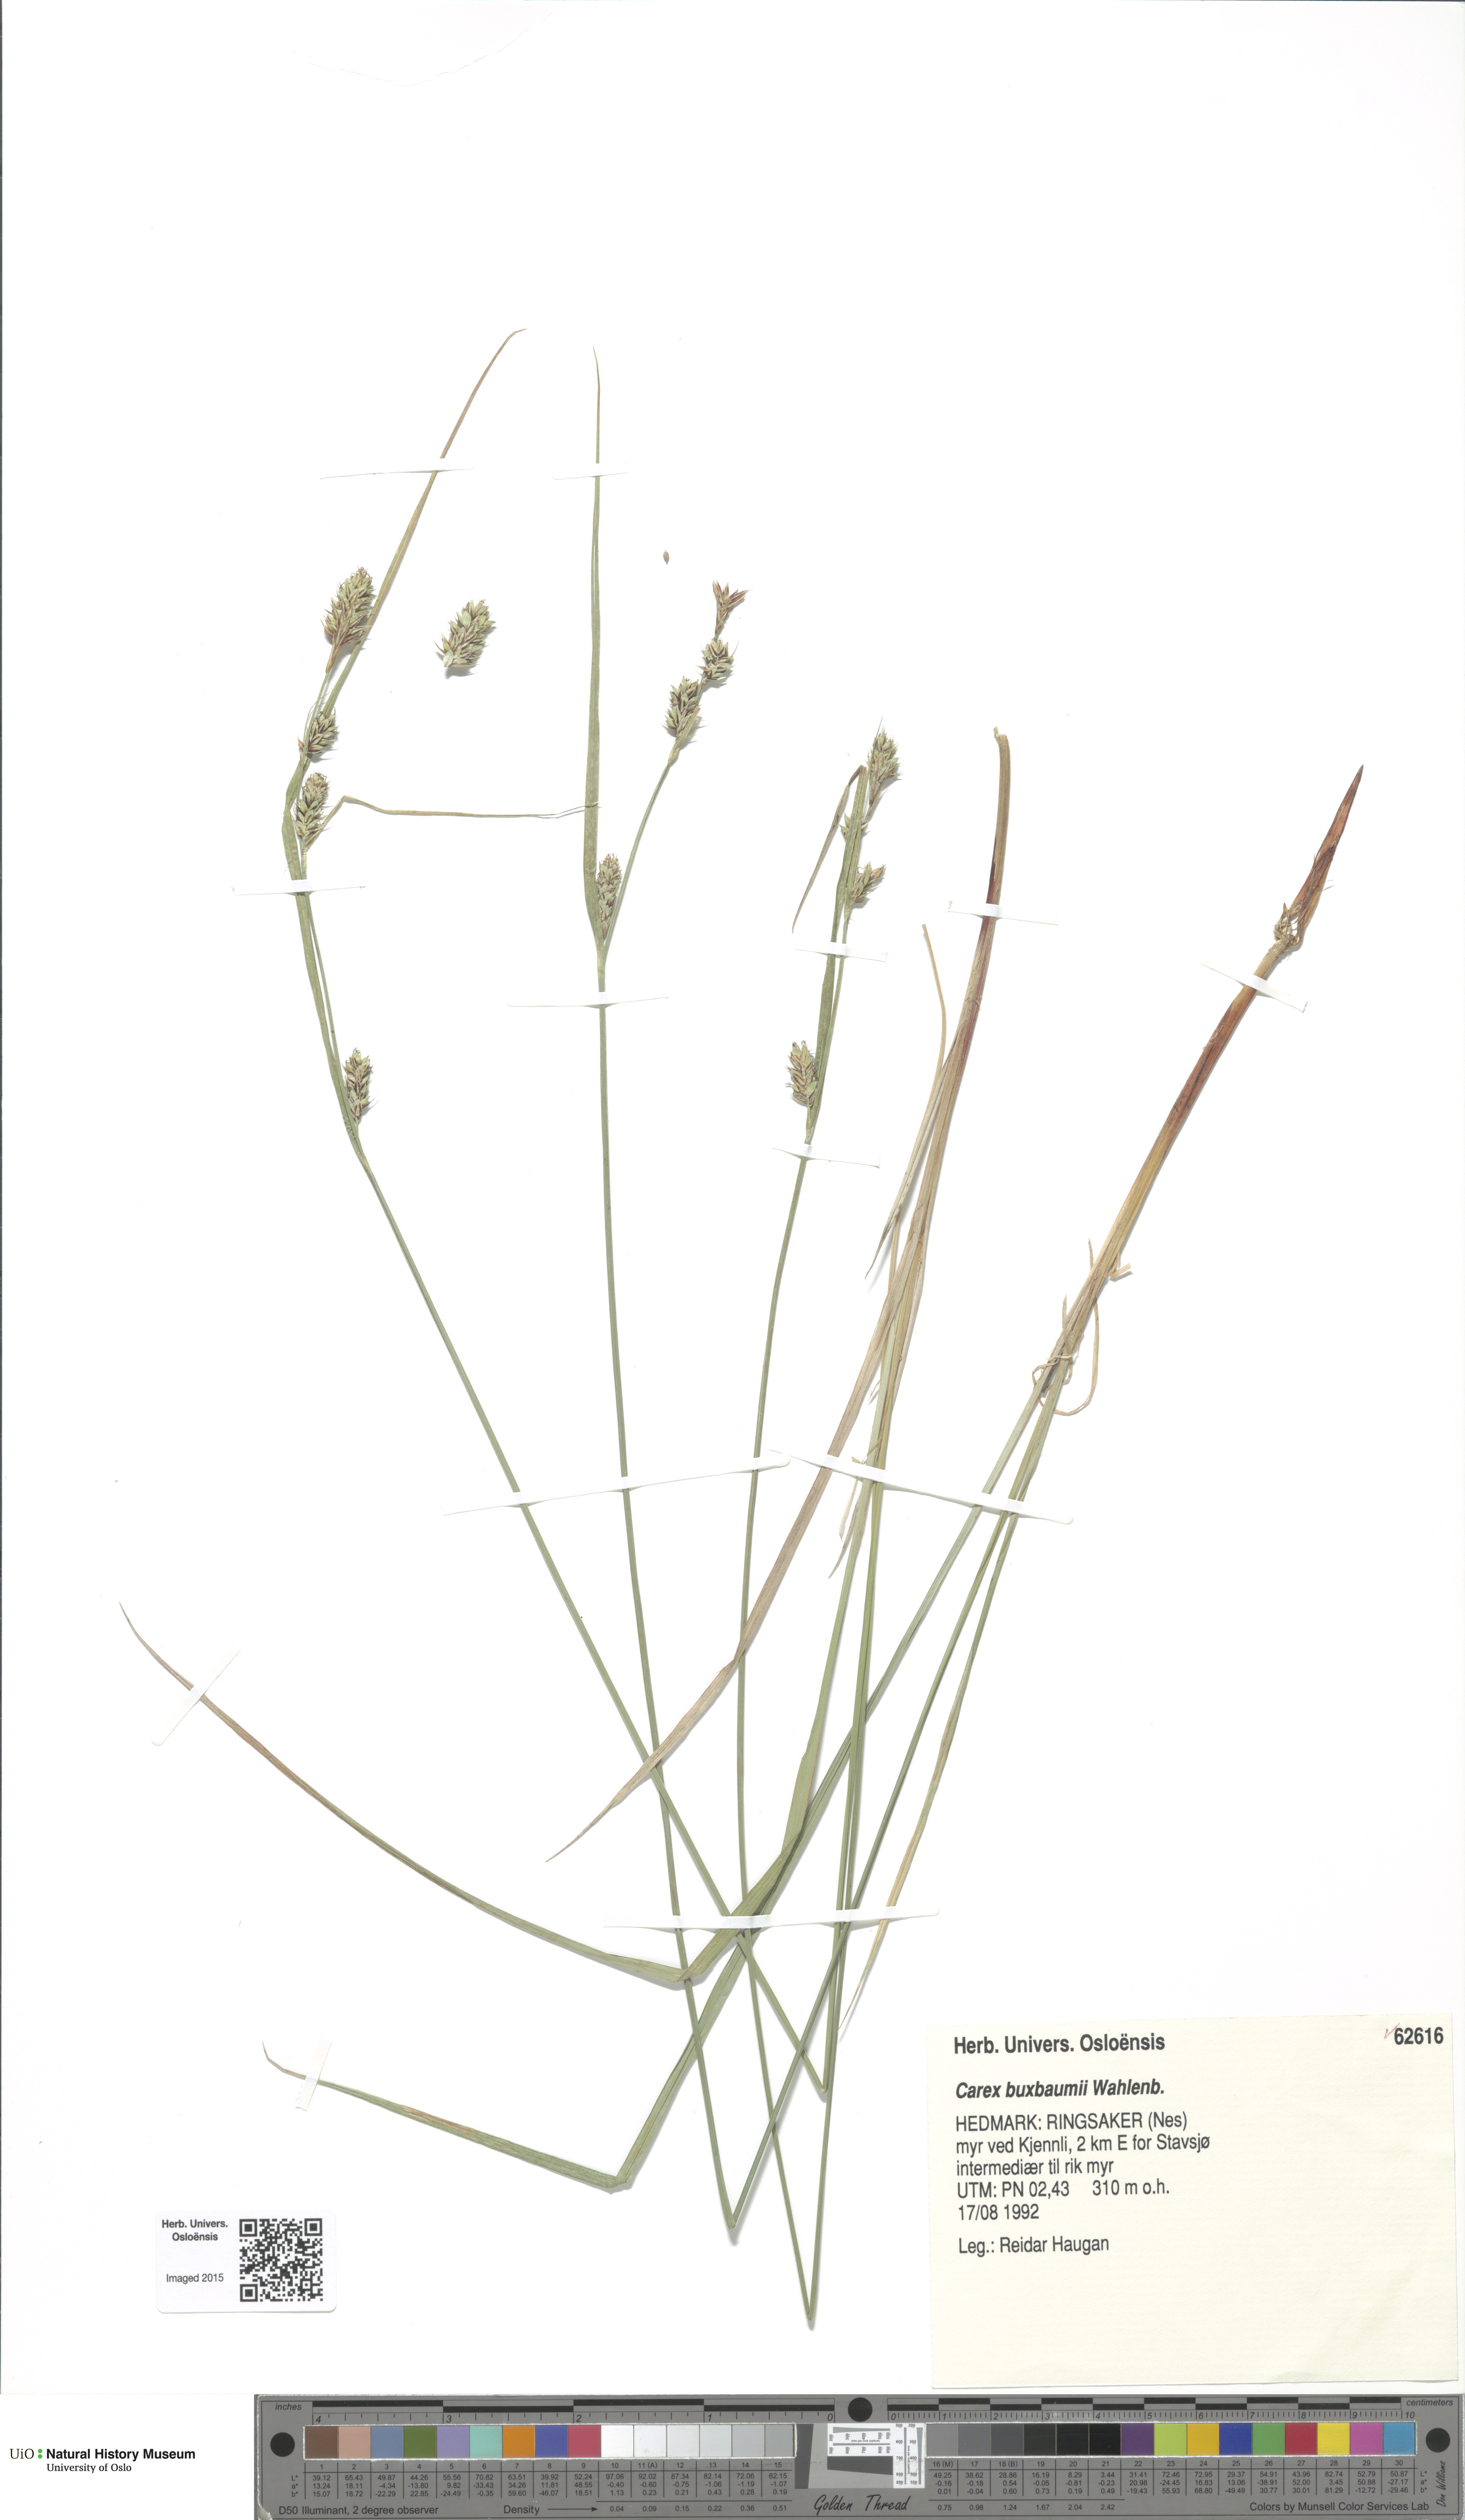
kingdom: Plantae
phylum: Tracheophyta
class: Liliopsida
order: Poales
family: Cyperaceae
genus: Carex
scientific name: Carex buxbaumii
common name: Club sedge
